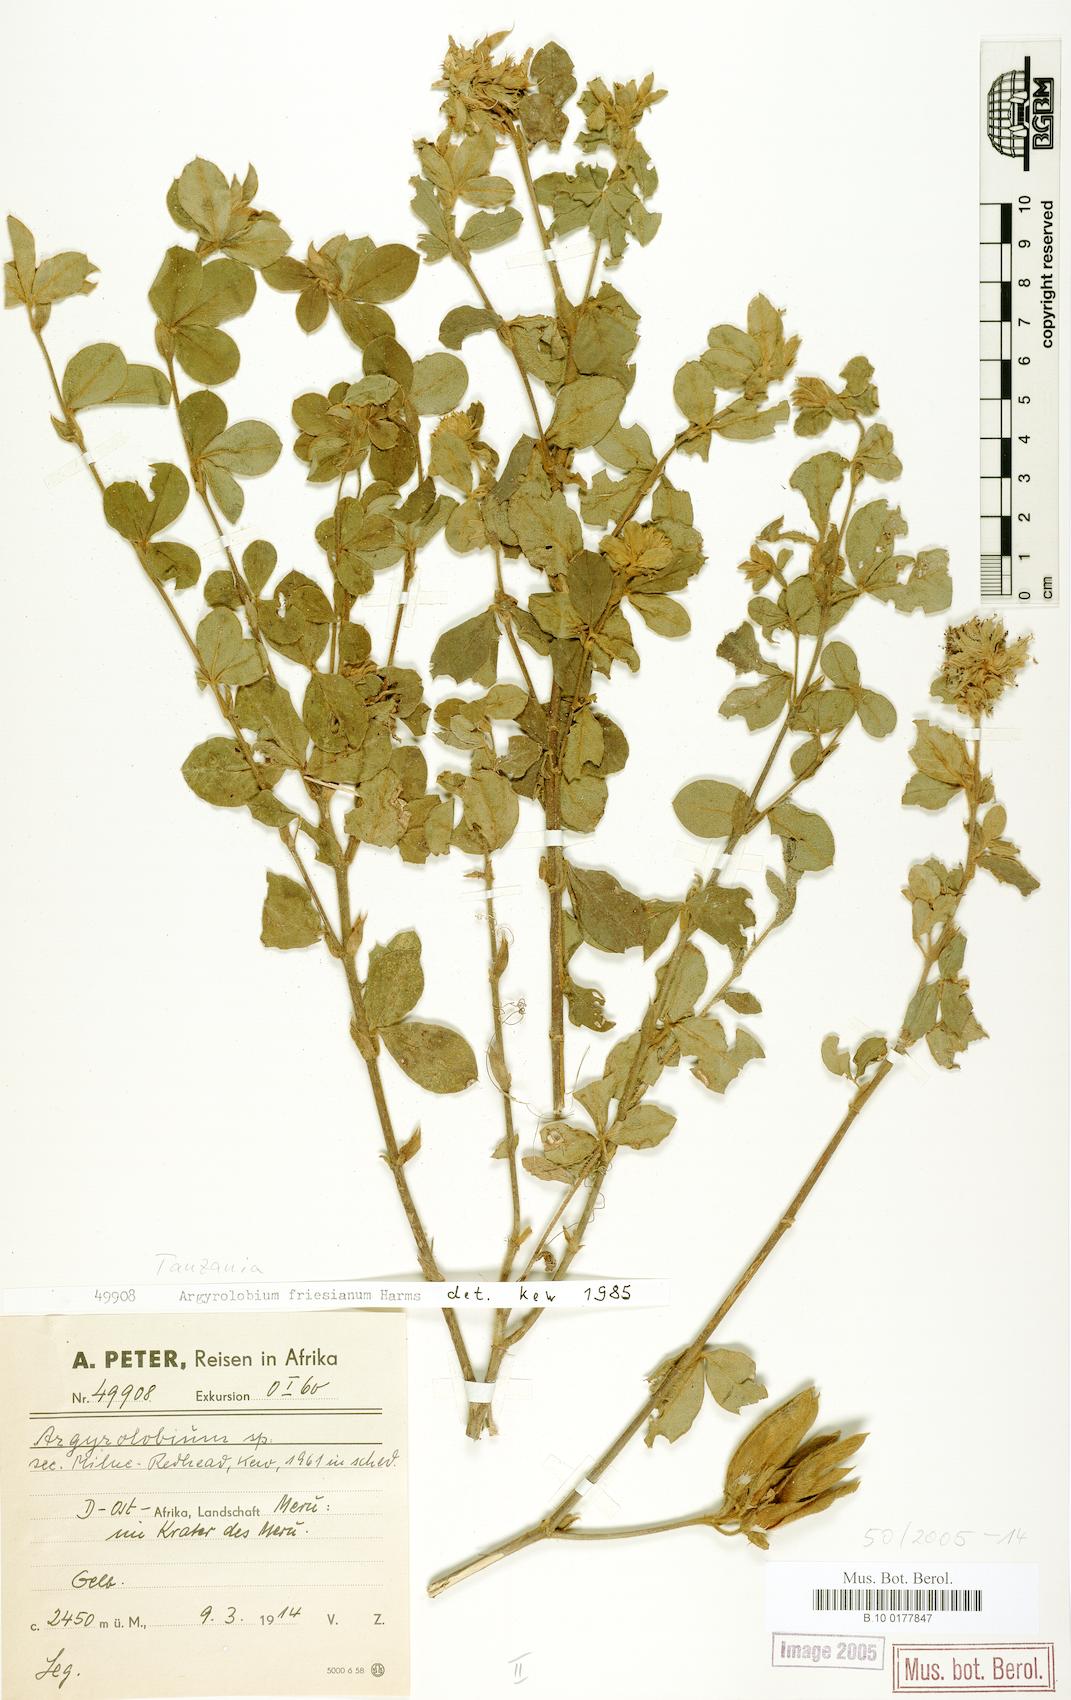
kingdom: Plantae
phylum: Tracheophyta
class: Magnoliopsida
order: Fabales
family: Fabaceae
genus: Argyrolobium
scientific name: Argyrolobium friesianum
